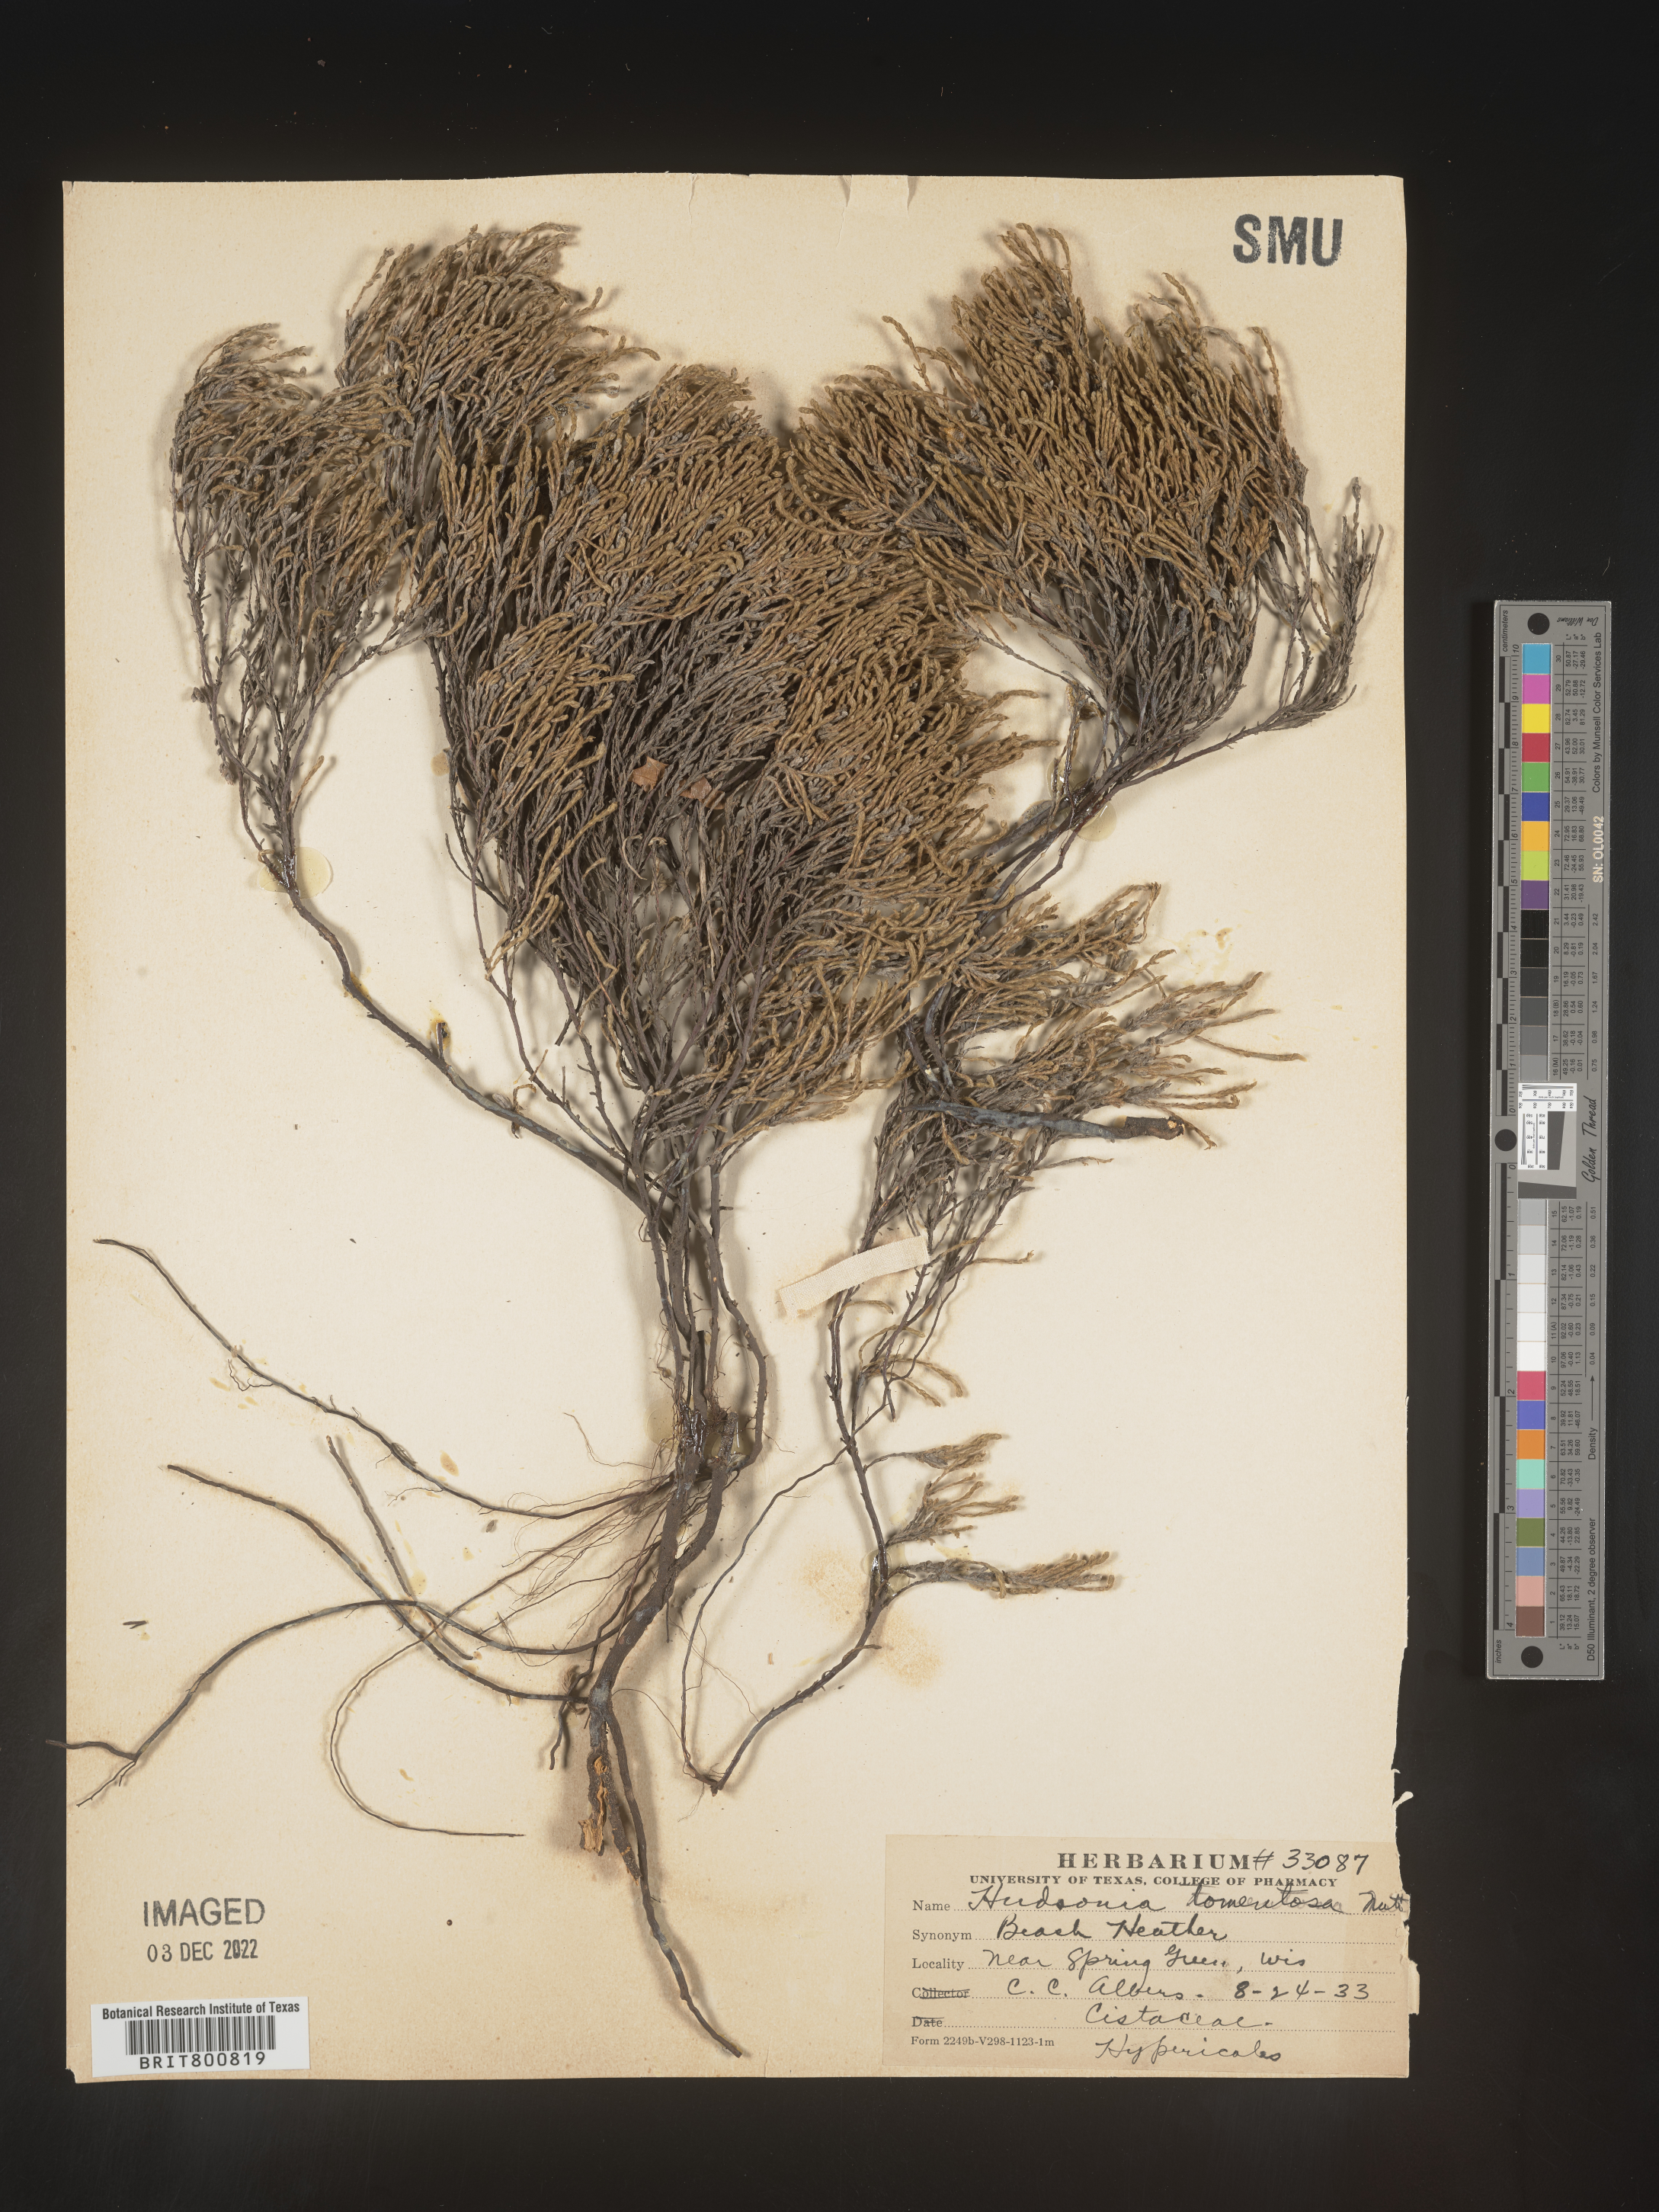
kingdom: Plantae
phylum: Tracheophyta
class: Magnoliopsida
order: Malvales
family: Cistaceae
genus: Hudsonia
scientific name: Hudsonia tomentosa
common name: Beach-heath
